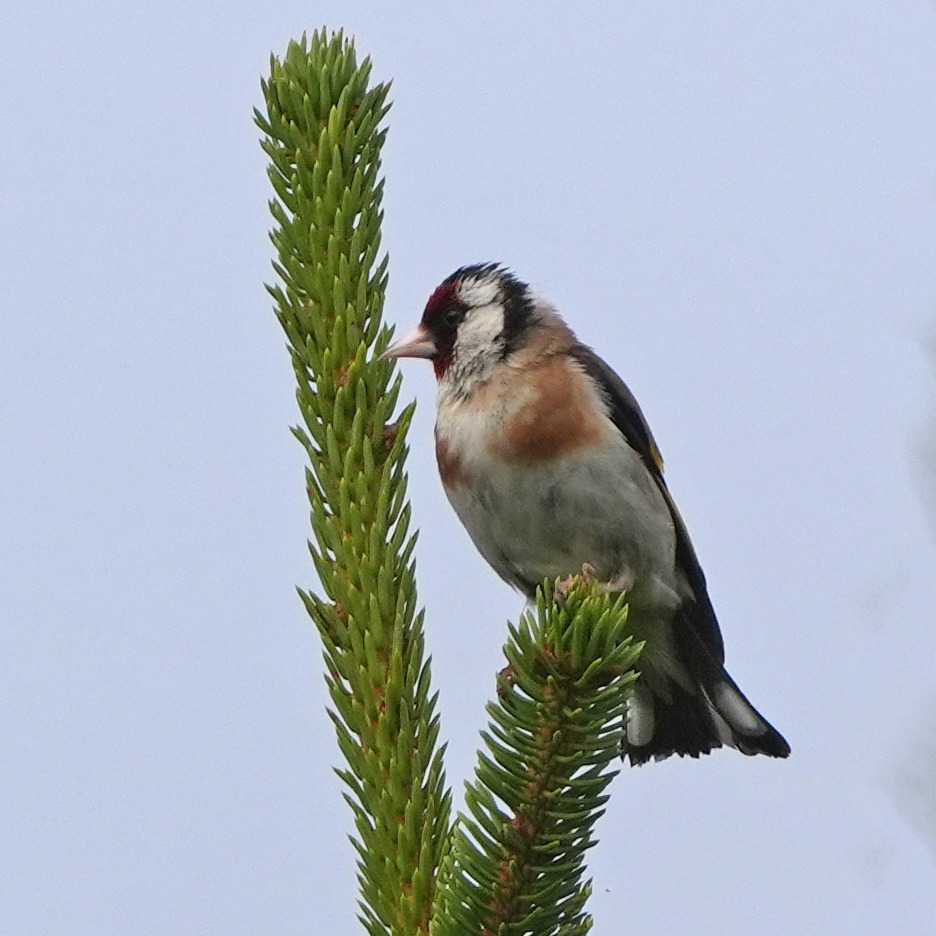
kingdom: Animalia
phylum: Chordata
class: Aves
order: Passeriformes
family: Fringillidae
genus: Carduelis
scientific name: Carduelis carduelis
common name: Stillits
